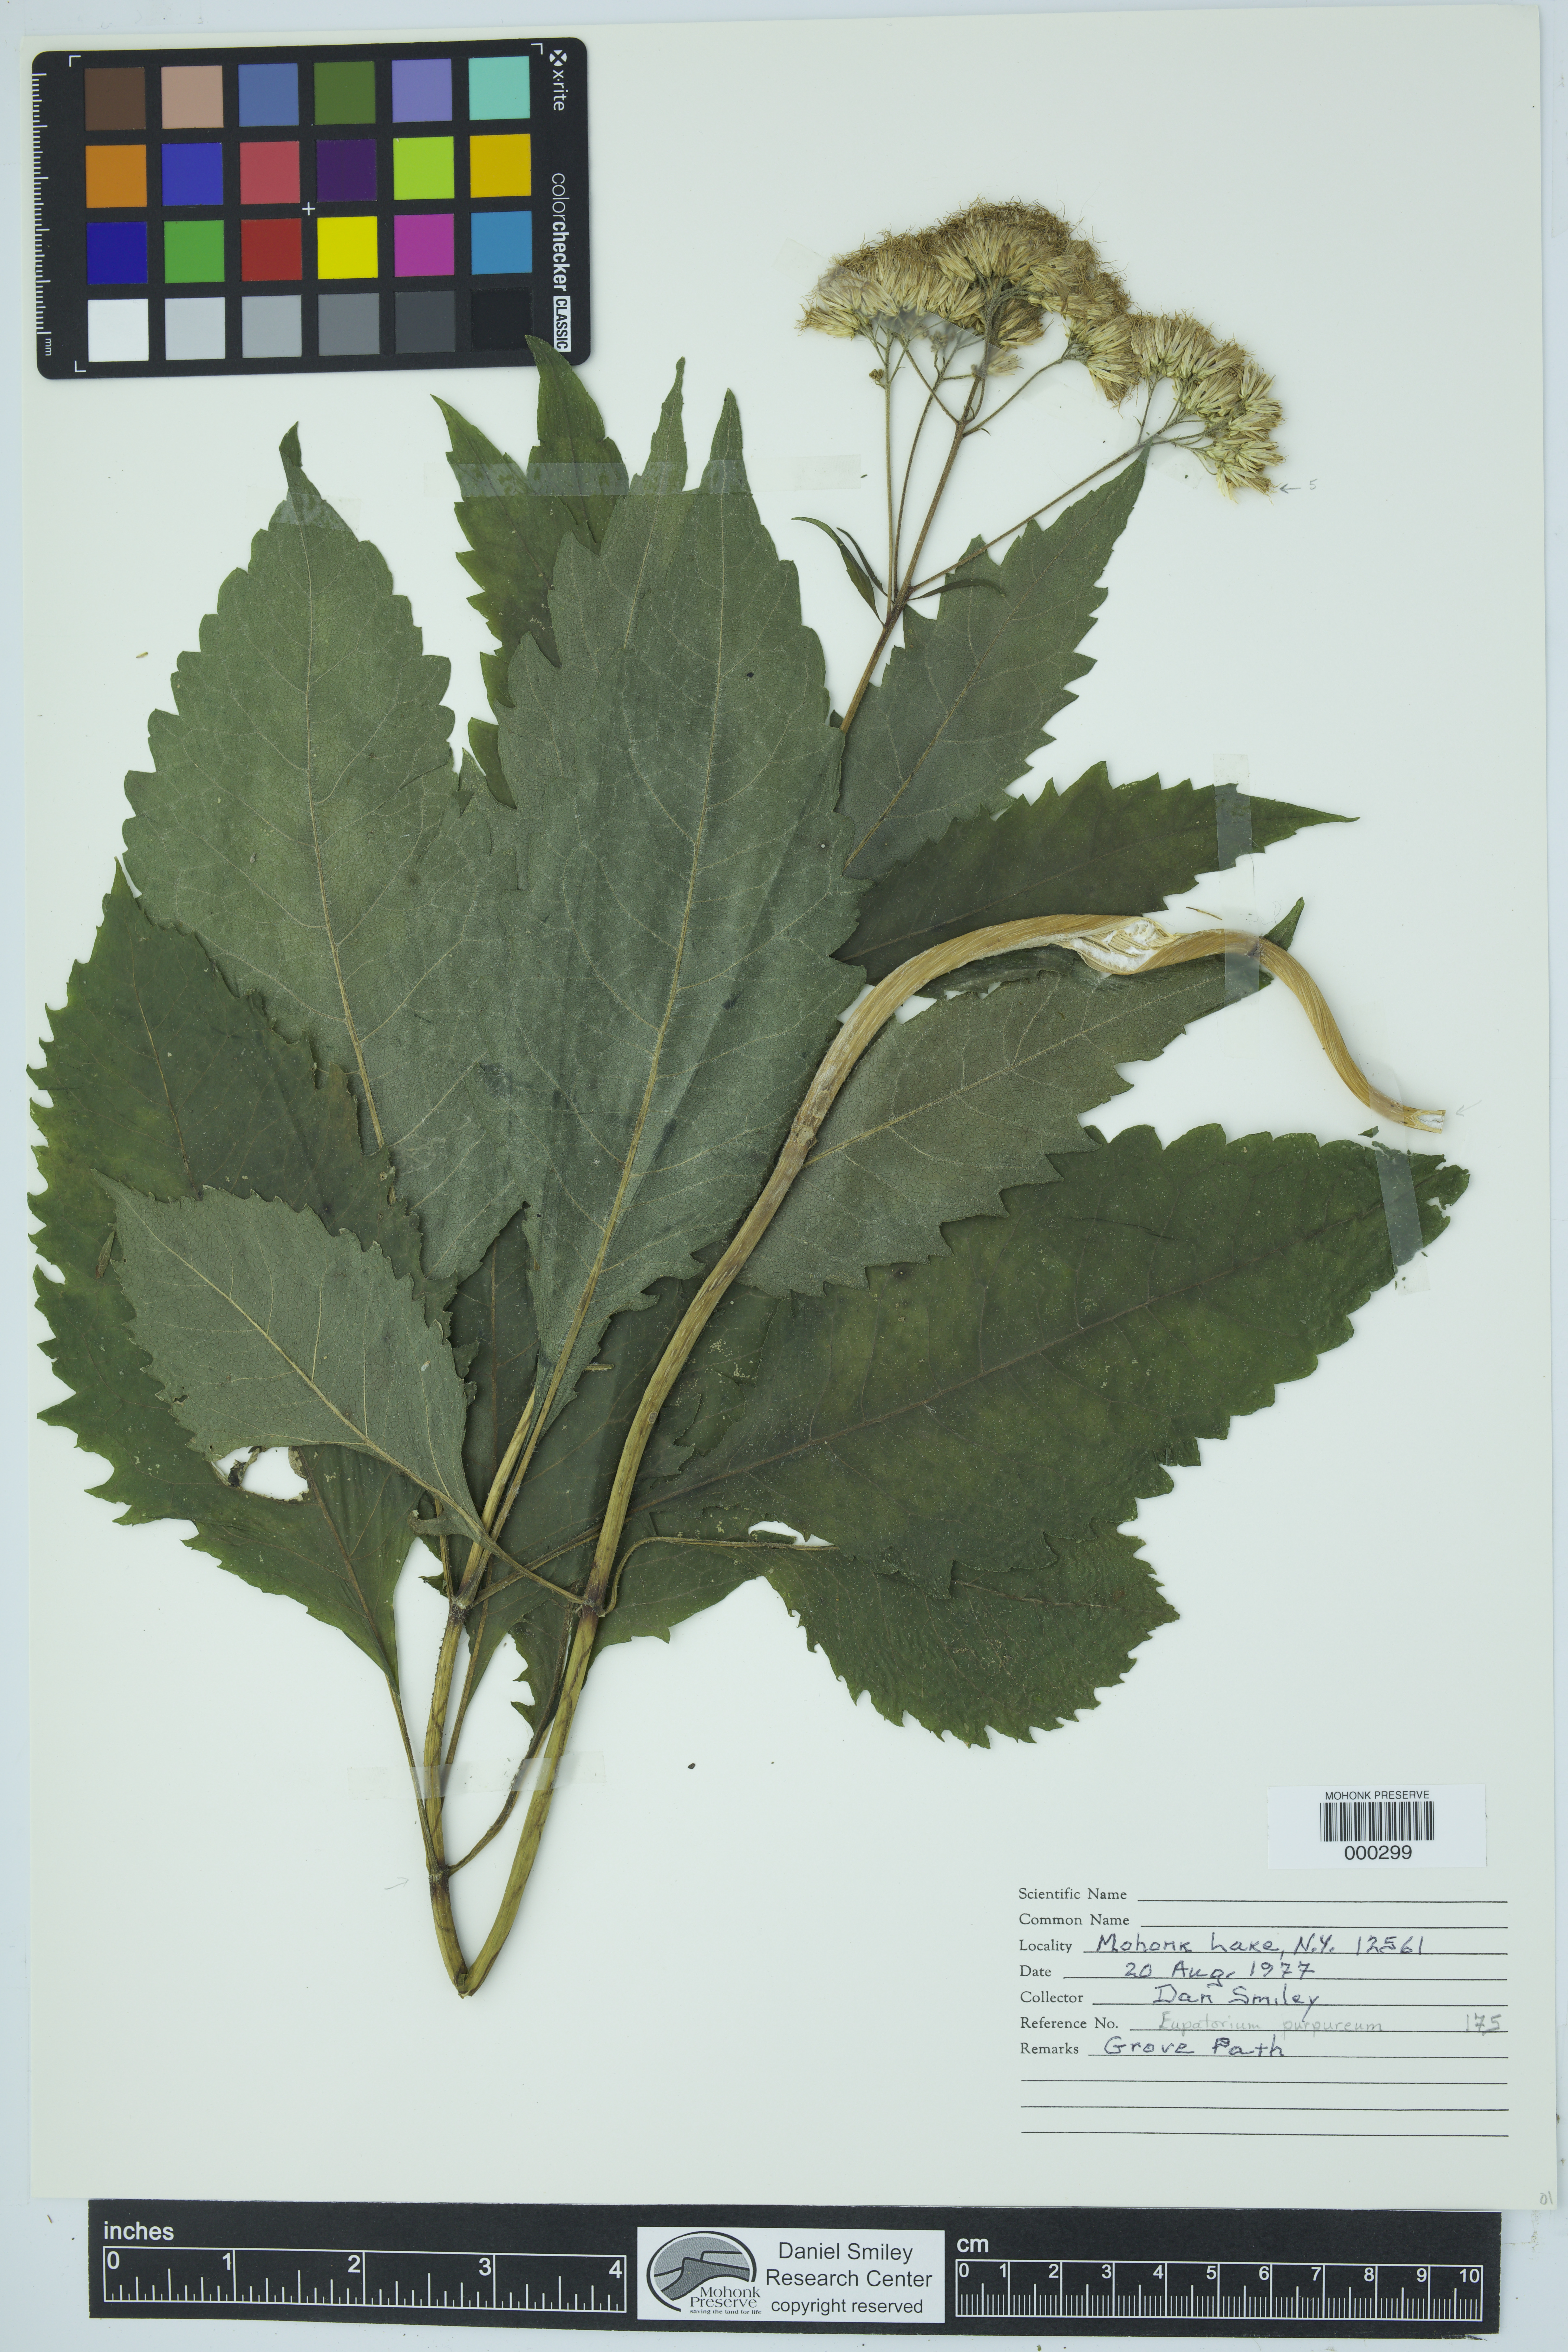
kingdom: Plantae
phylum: Tracheophyta
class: Magnoliopsida
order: Asterales
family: Asteraceae
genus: Eutrochium
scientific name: Eutrochium purpureum
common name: Gravelroot
